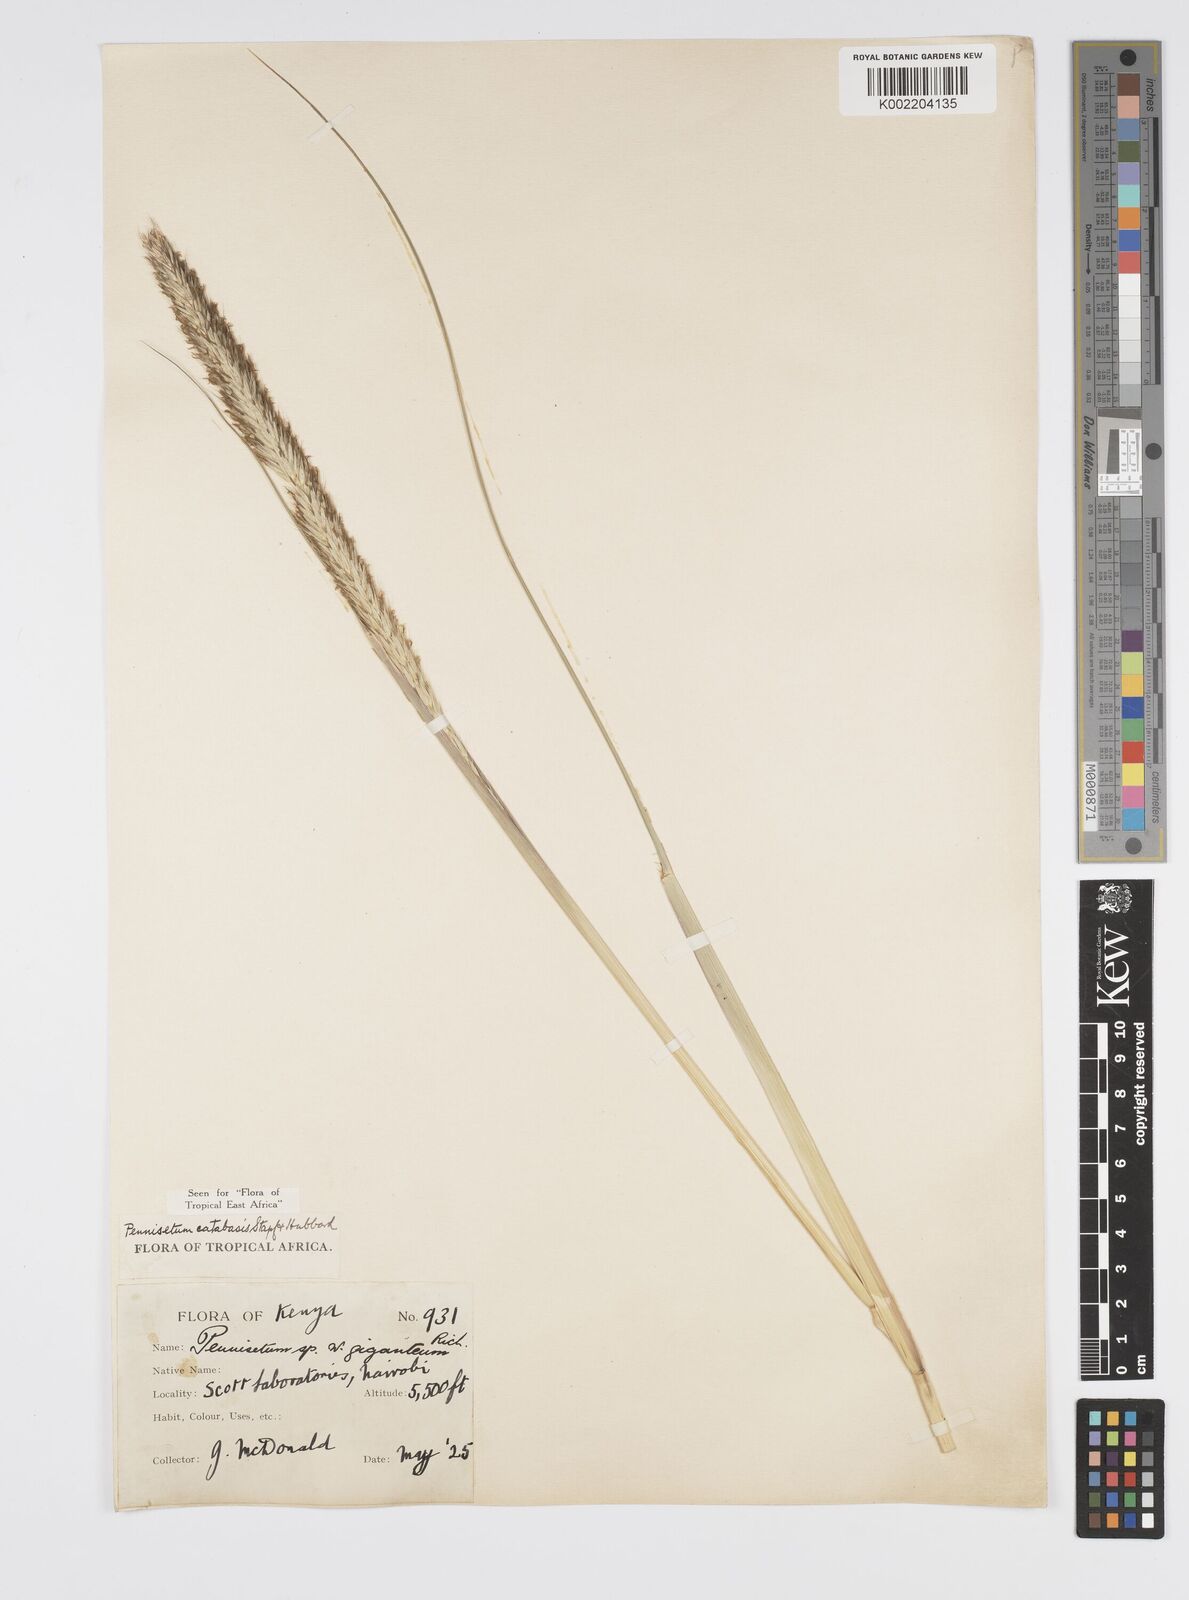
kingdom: Plantae
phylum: Tracheophyta
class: Liliopsida
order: Poales
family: Poaceae
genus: Cenchrus
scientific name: Cenchrus Pennisetum spec
